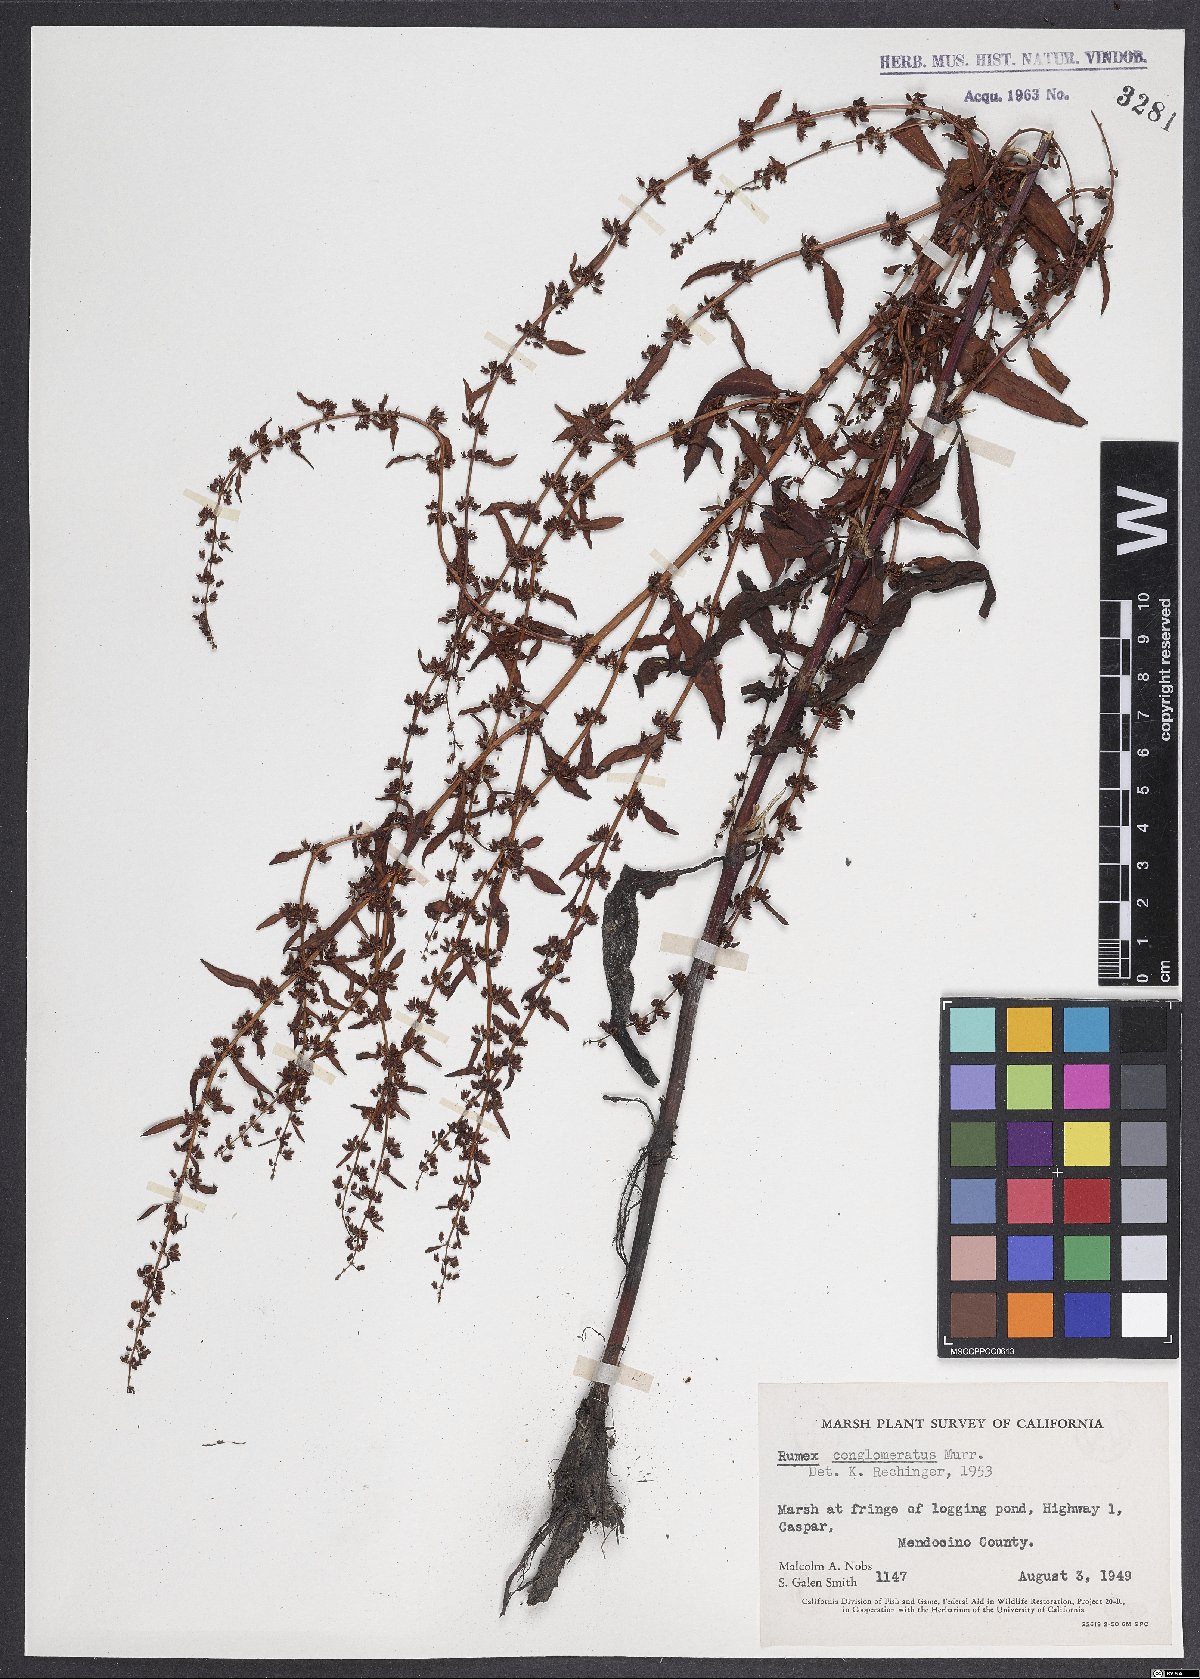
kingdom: Plantae
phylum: Tracheophyta
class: Magnoliopsida
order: Caryophyllales
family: Polygonaceae
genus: Rumex
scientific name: Rumex conglomeratus
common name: Clustered dock
